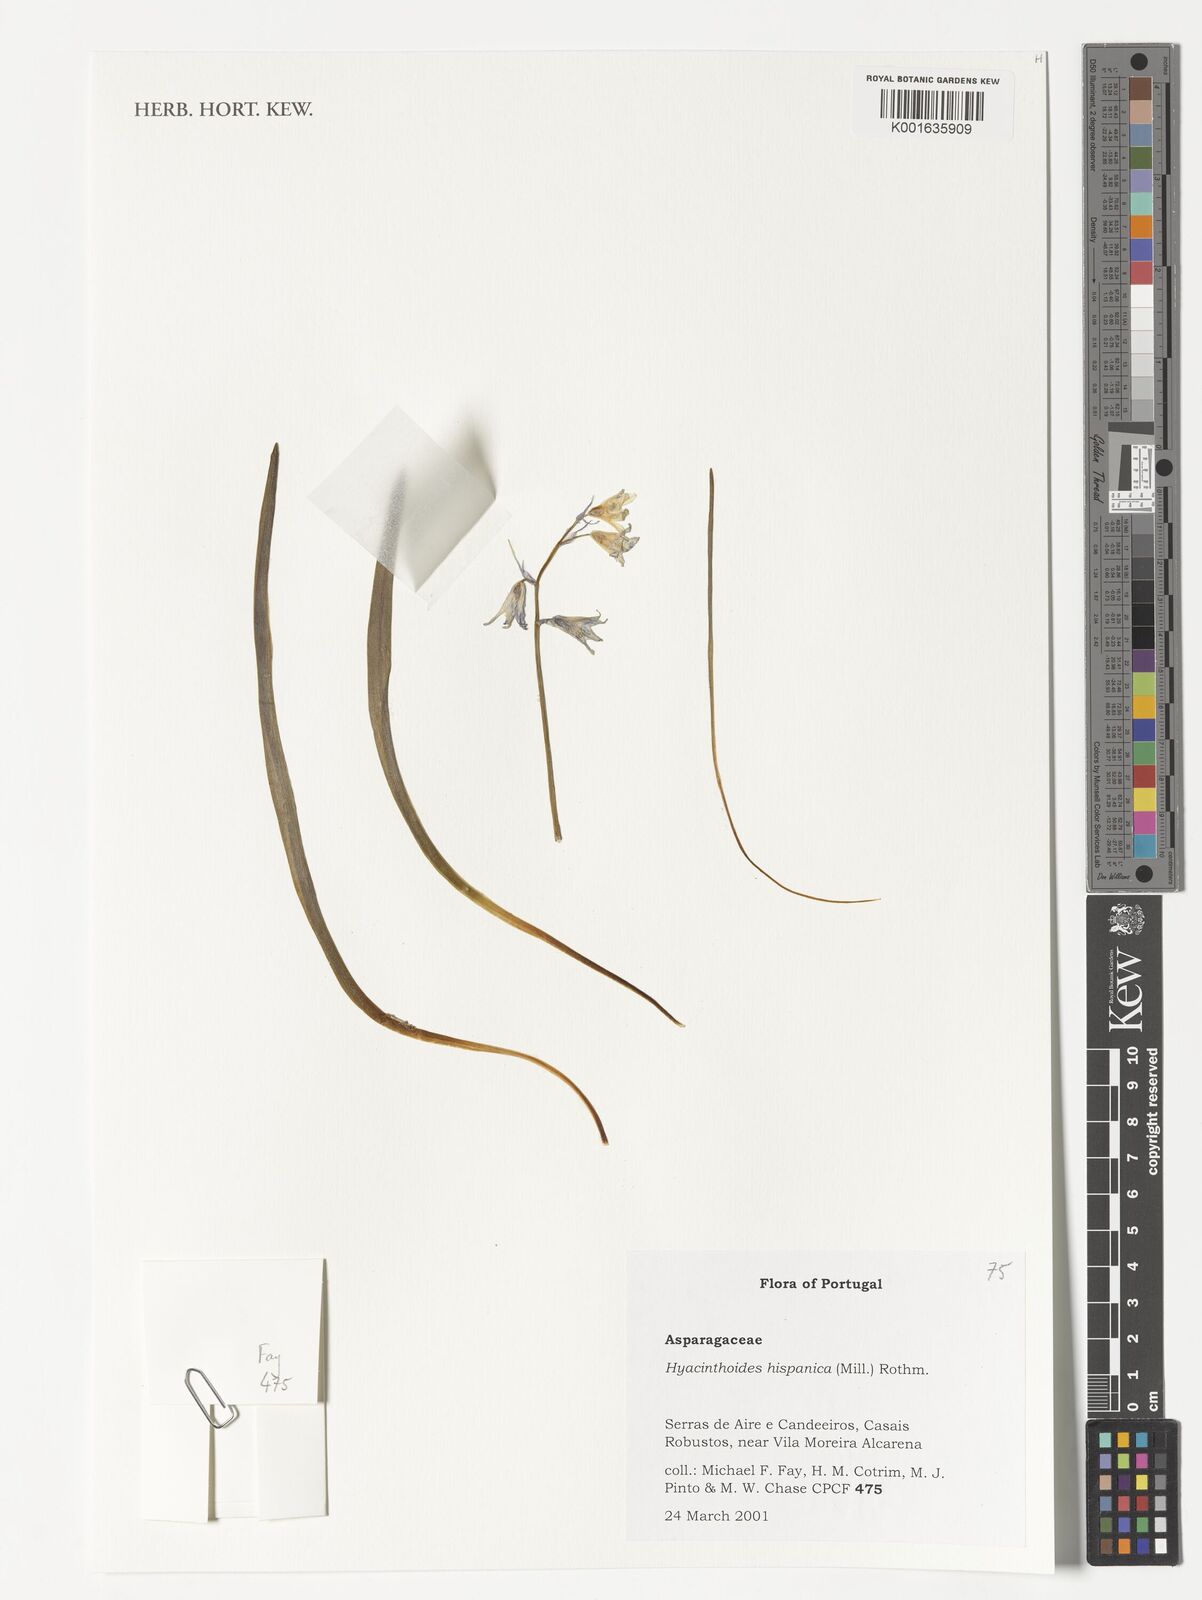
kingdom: Plantae
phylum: Tracheophyta
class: Liliopsida
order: Asparagales
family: Asparagaceae
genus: Hyacinthoides
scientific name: Hyacinthoides hispanica
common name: Spanish bluebell
